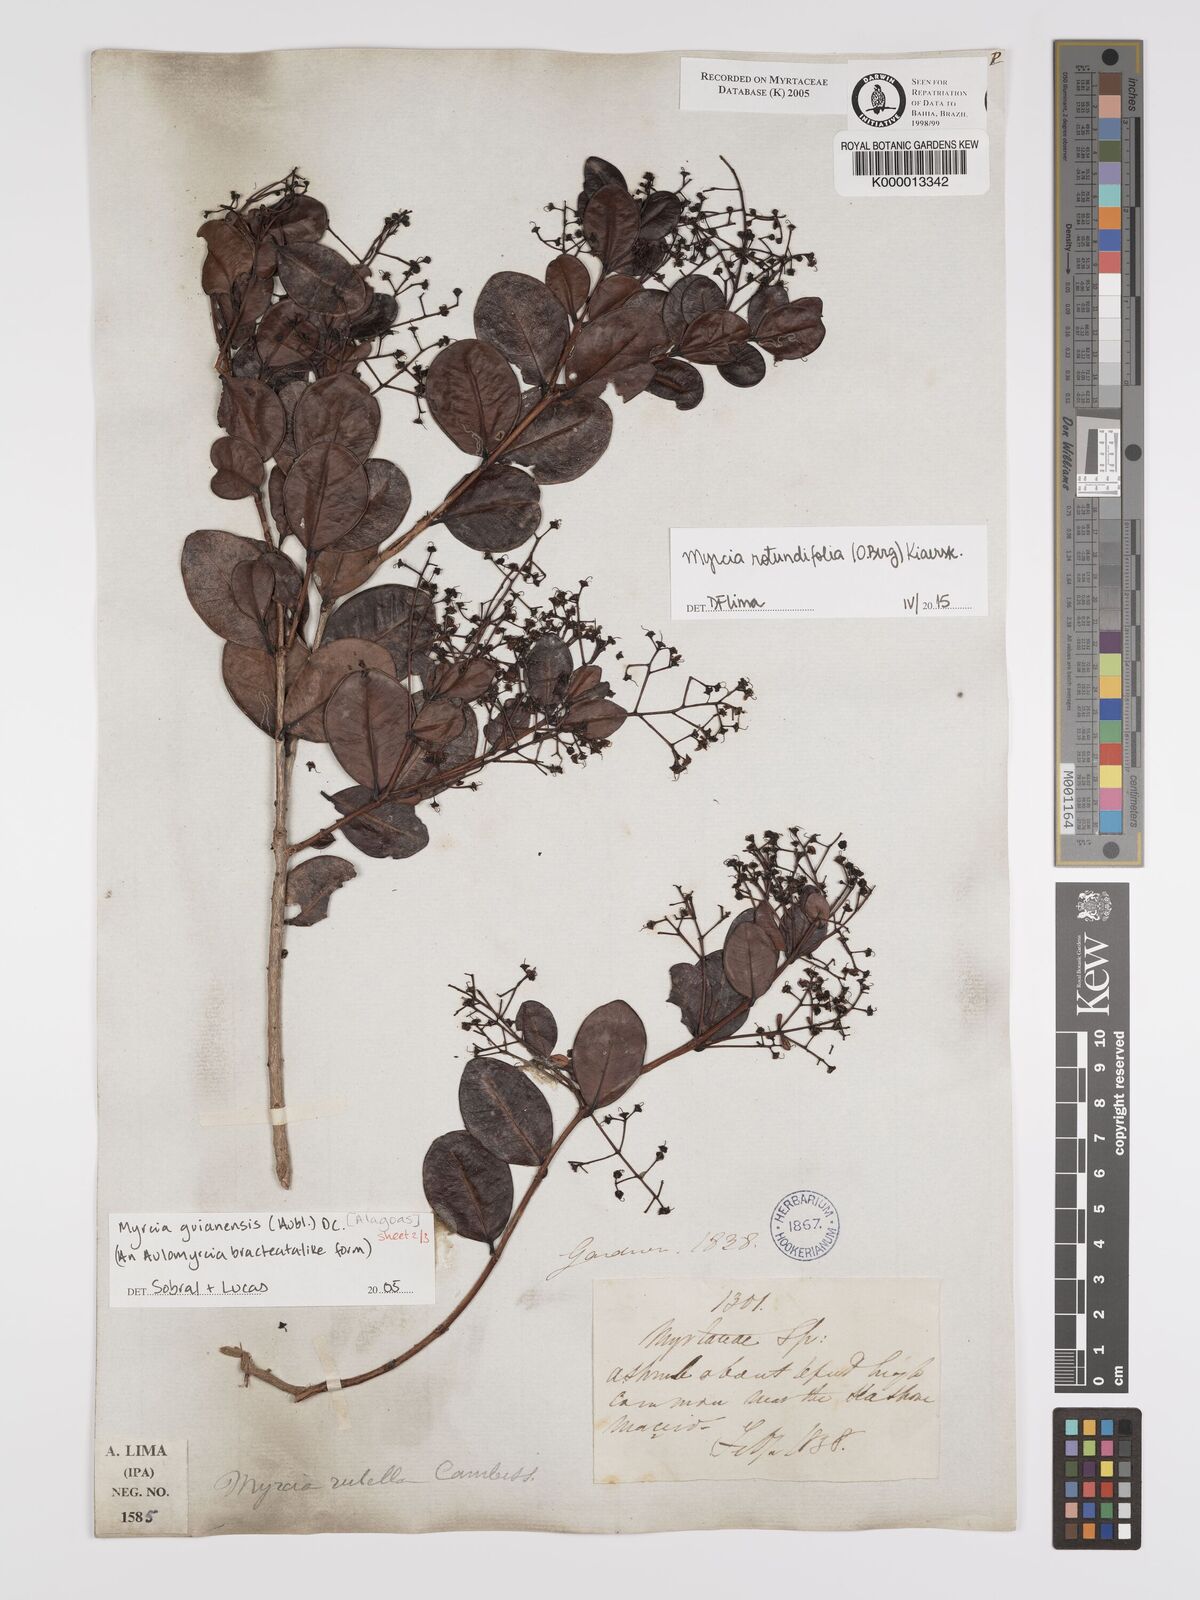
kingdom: Plantae
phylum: Tracheophyta
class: Magnoliopsida
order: Myrtales
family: Myrtaceae
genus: Myrcia
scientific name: Myrcia rotundifolia
